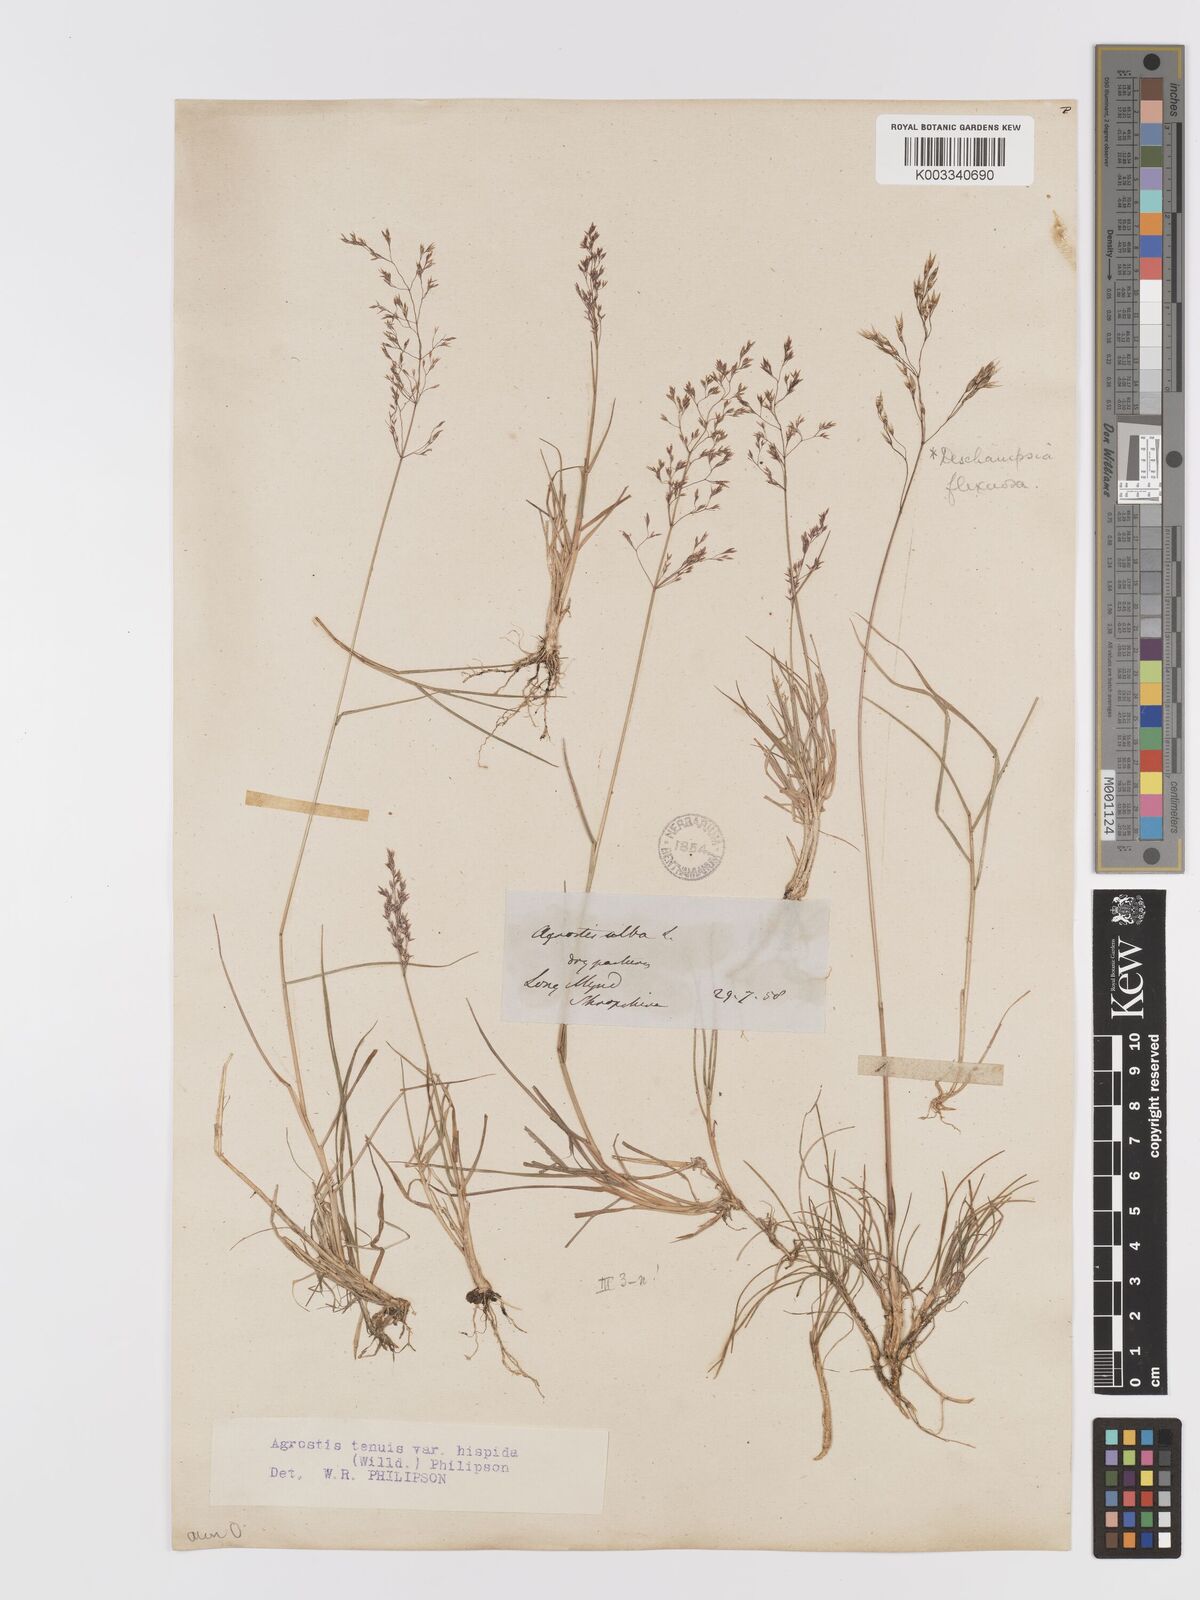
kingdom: Plantae
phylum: Tracheophyta
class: Liliopsida
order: Poales
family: Poaceae
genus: Agrostis
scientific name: Agrostis capillaris
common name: Colonial bentgrass
